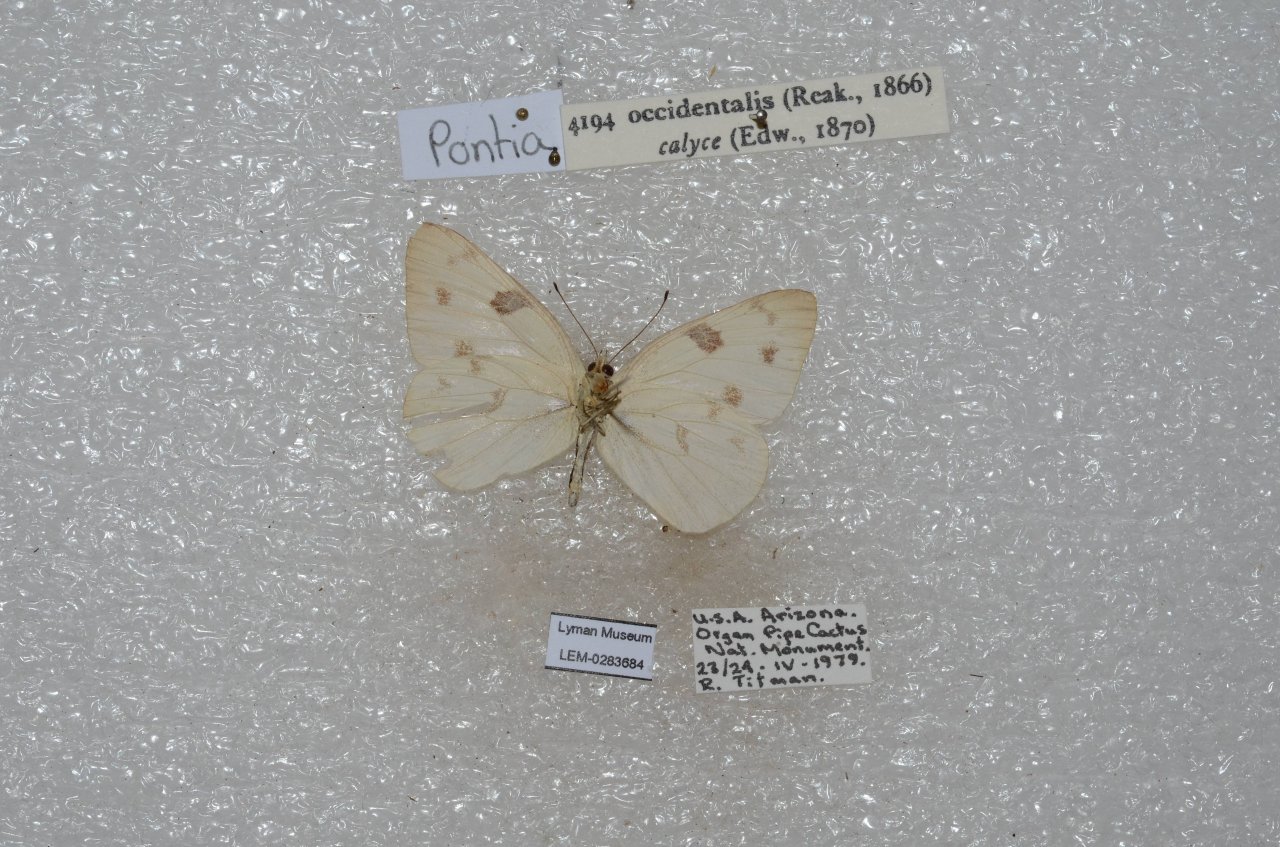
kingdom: Animalia
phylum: Arthropoda
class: Insecta
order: Lepidoptera
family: Pieridae
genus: Pontia
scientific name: Pontia occidentalis
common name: Western White
